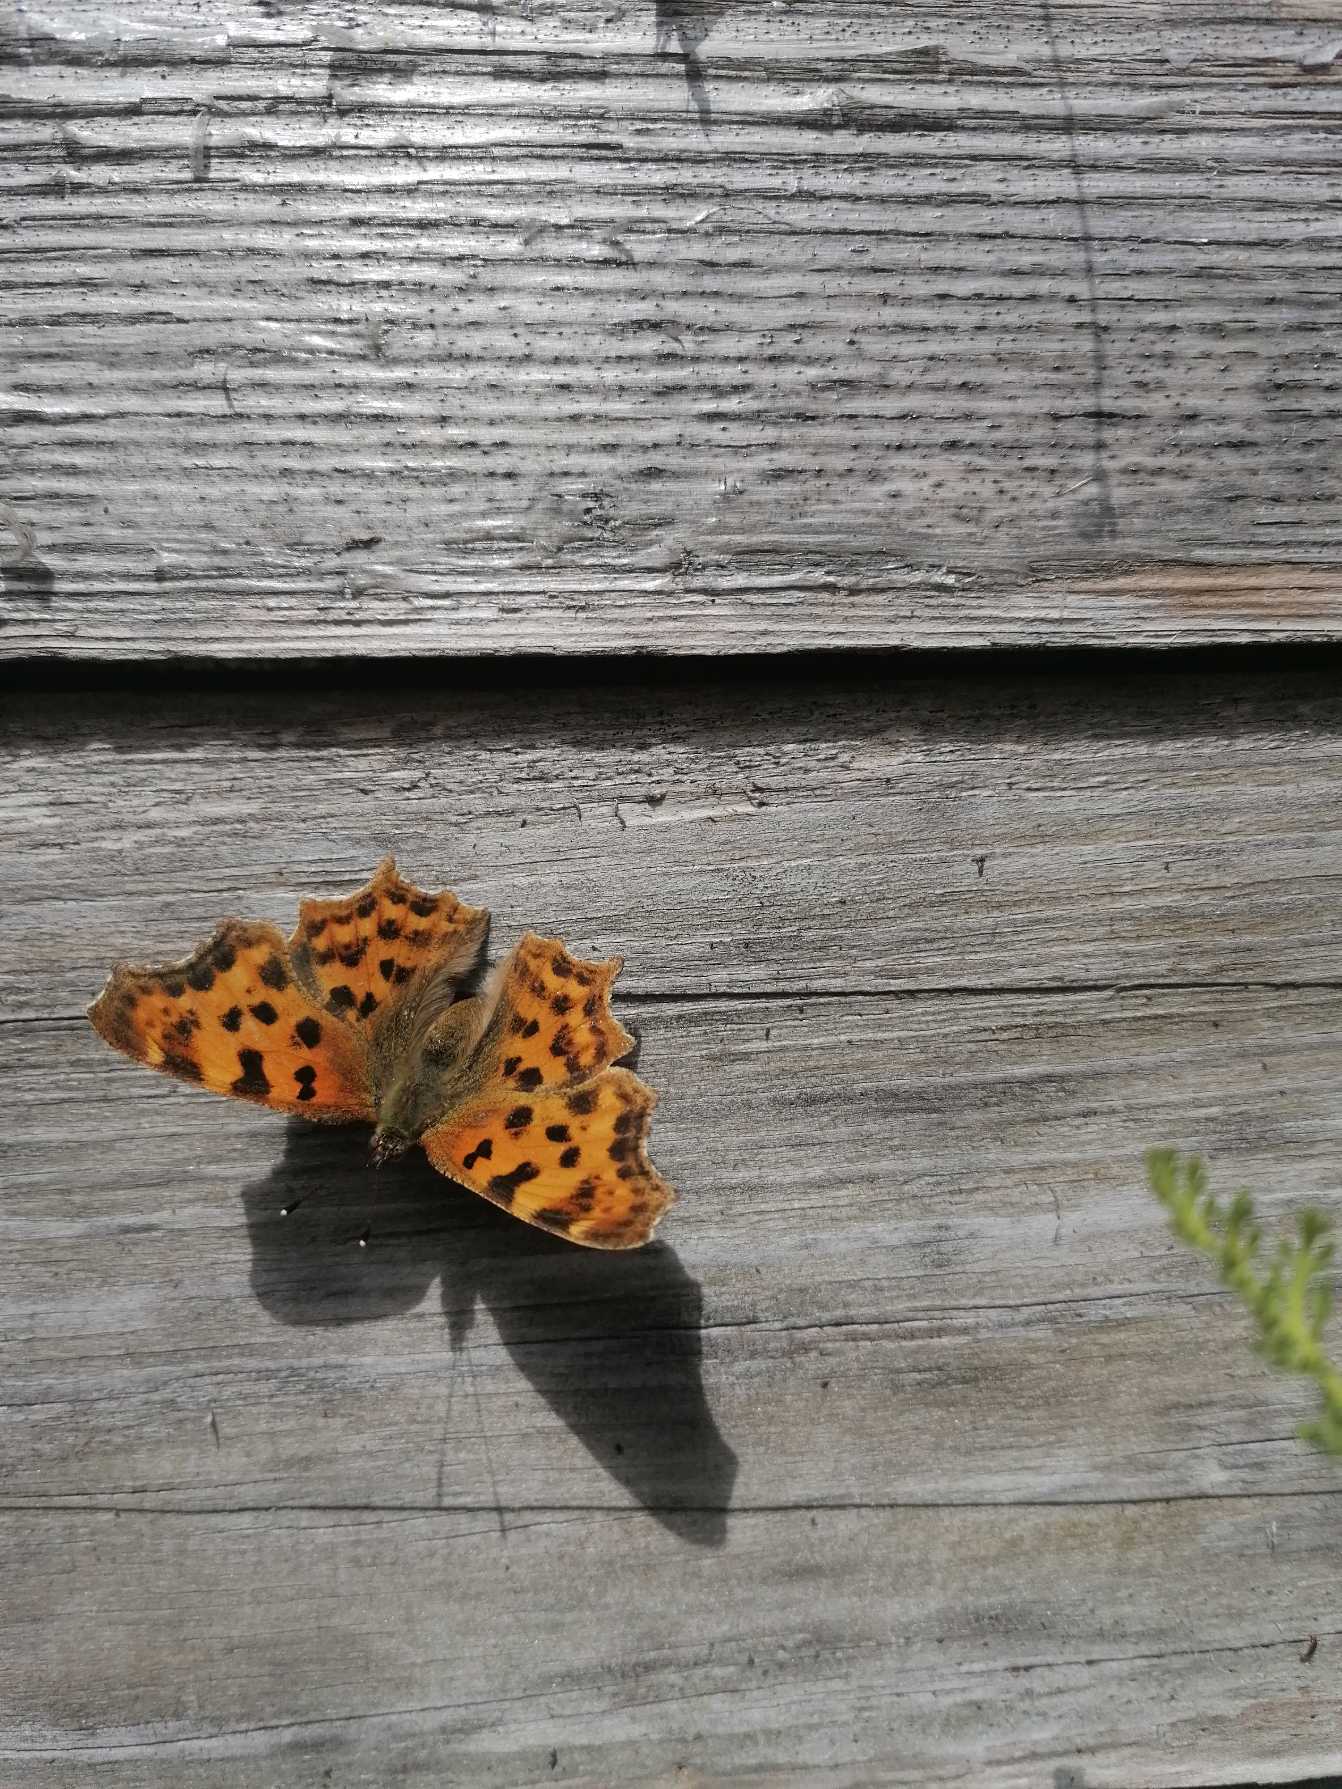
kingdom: Animalia
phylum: Arthropoda
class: Insecta
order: Lepidoptera
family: Nymphalidae
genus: Polygonia
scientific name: Polygonia c-album
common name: Det hvide C
